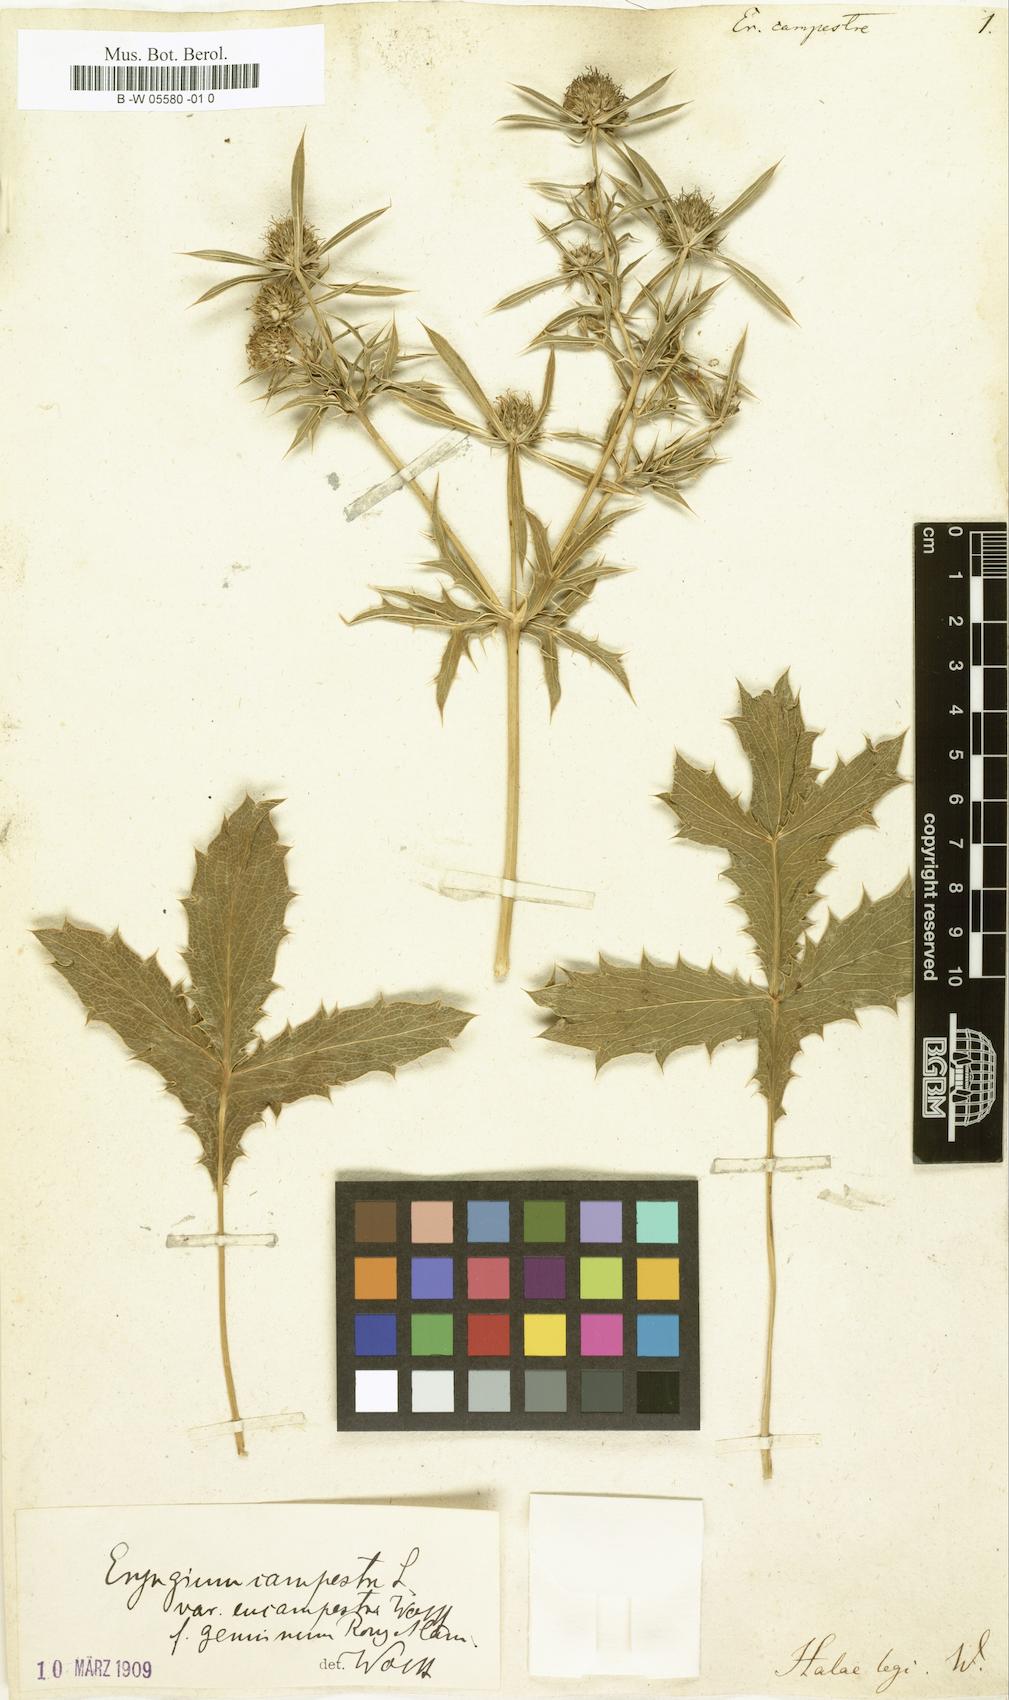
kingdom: Plantae
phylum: Tracheophyta
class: Magnoliopsida
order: Apiales
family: Apiaceae
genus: Eryngium
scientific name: Eryngium campestre
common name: Field eryngo
